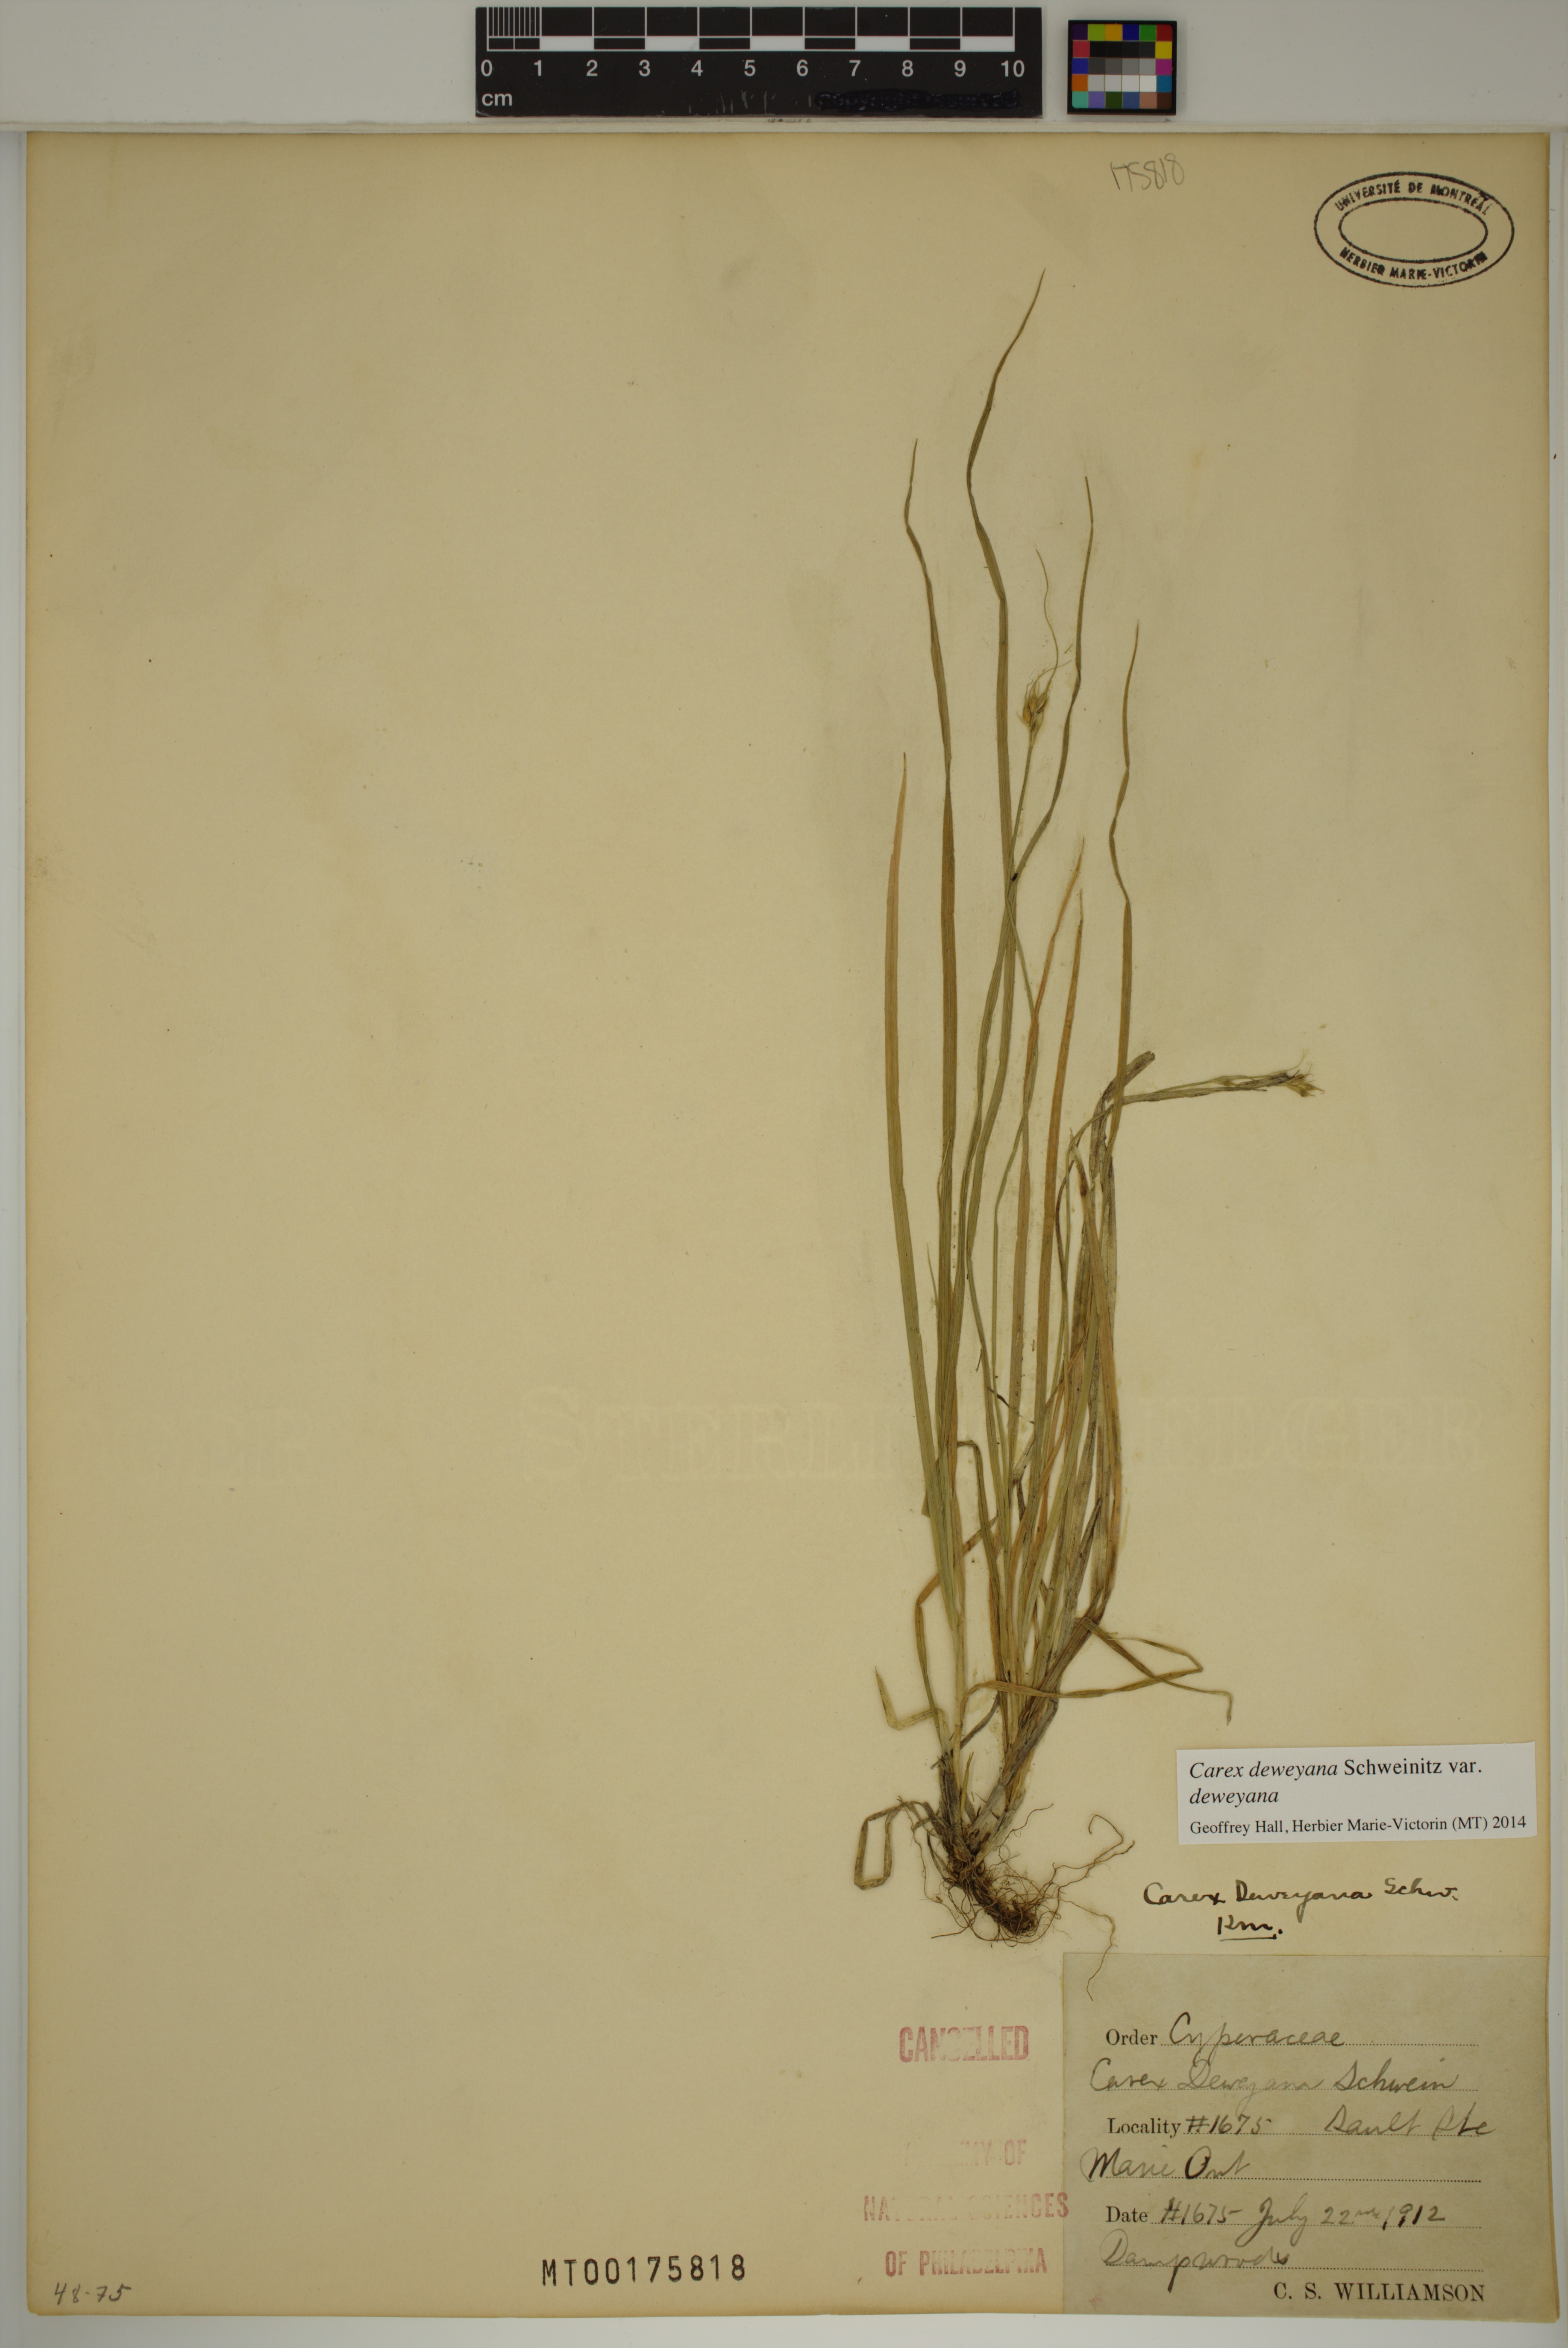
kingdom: Plantae
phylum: Tracheophyta
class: Liliopsida
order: Poales
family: Cyperaceae
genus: Carex
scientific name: Carex deweyana
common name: Dewey's sedge
